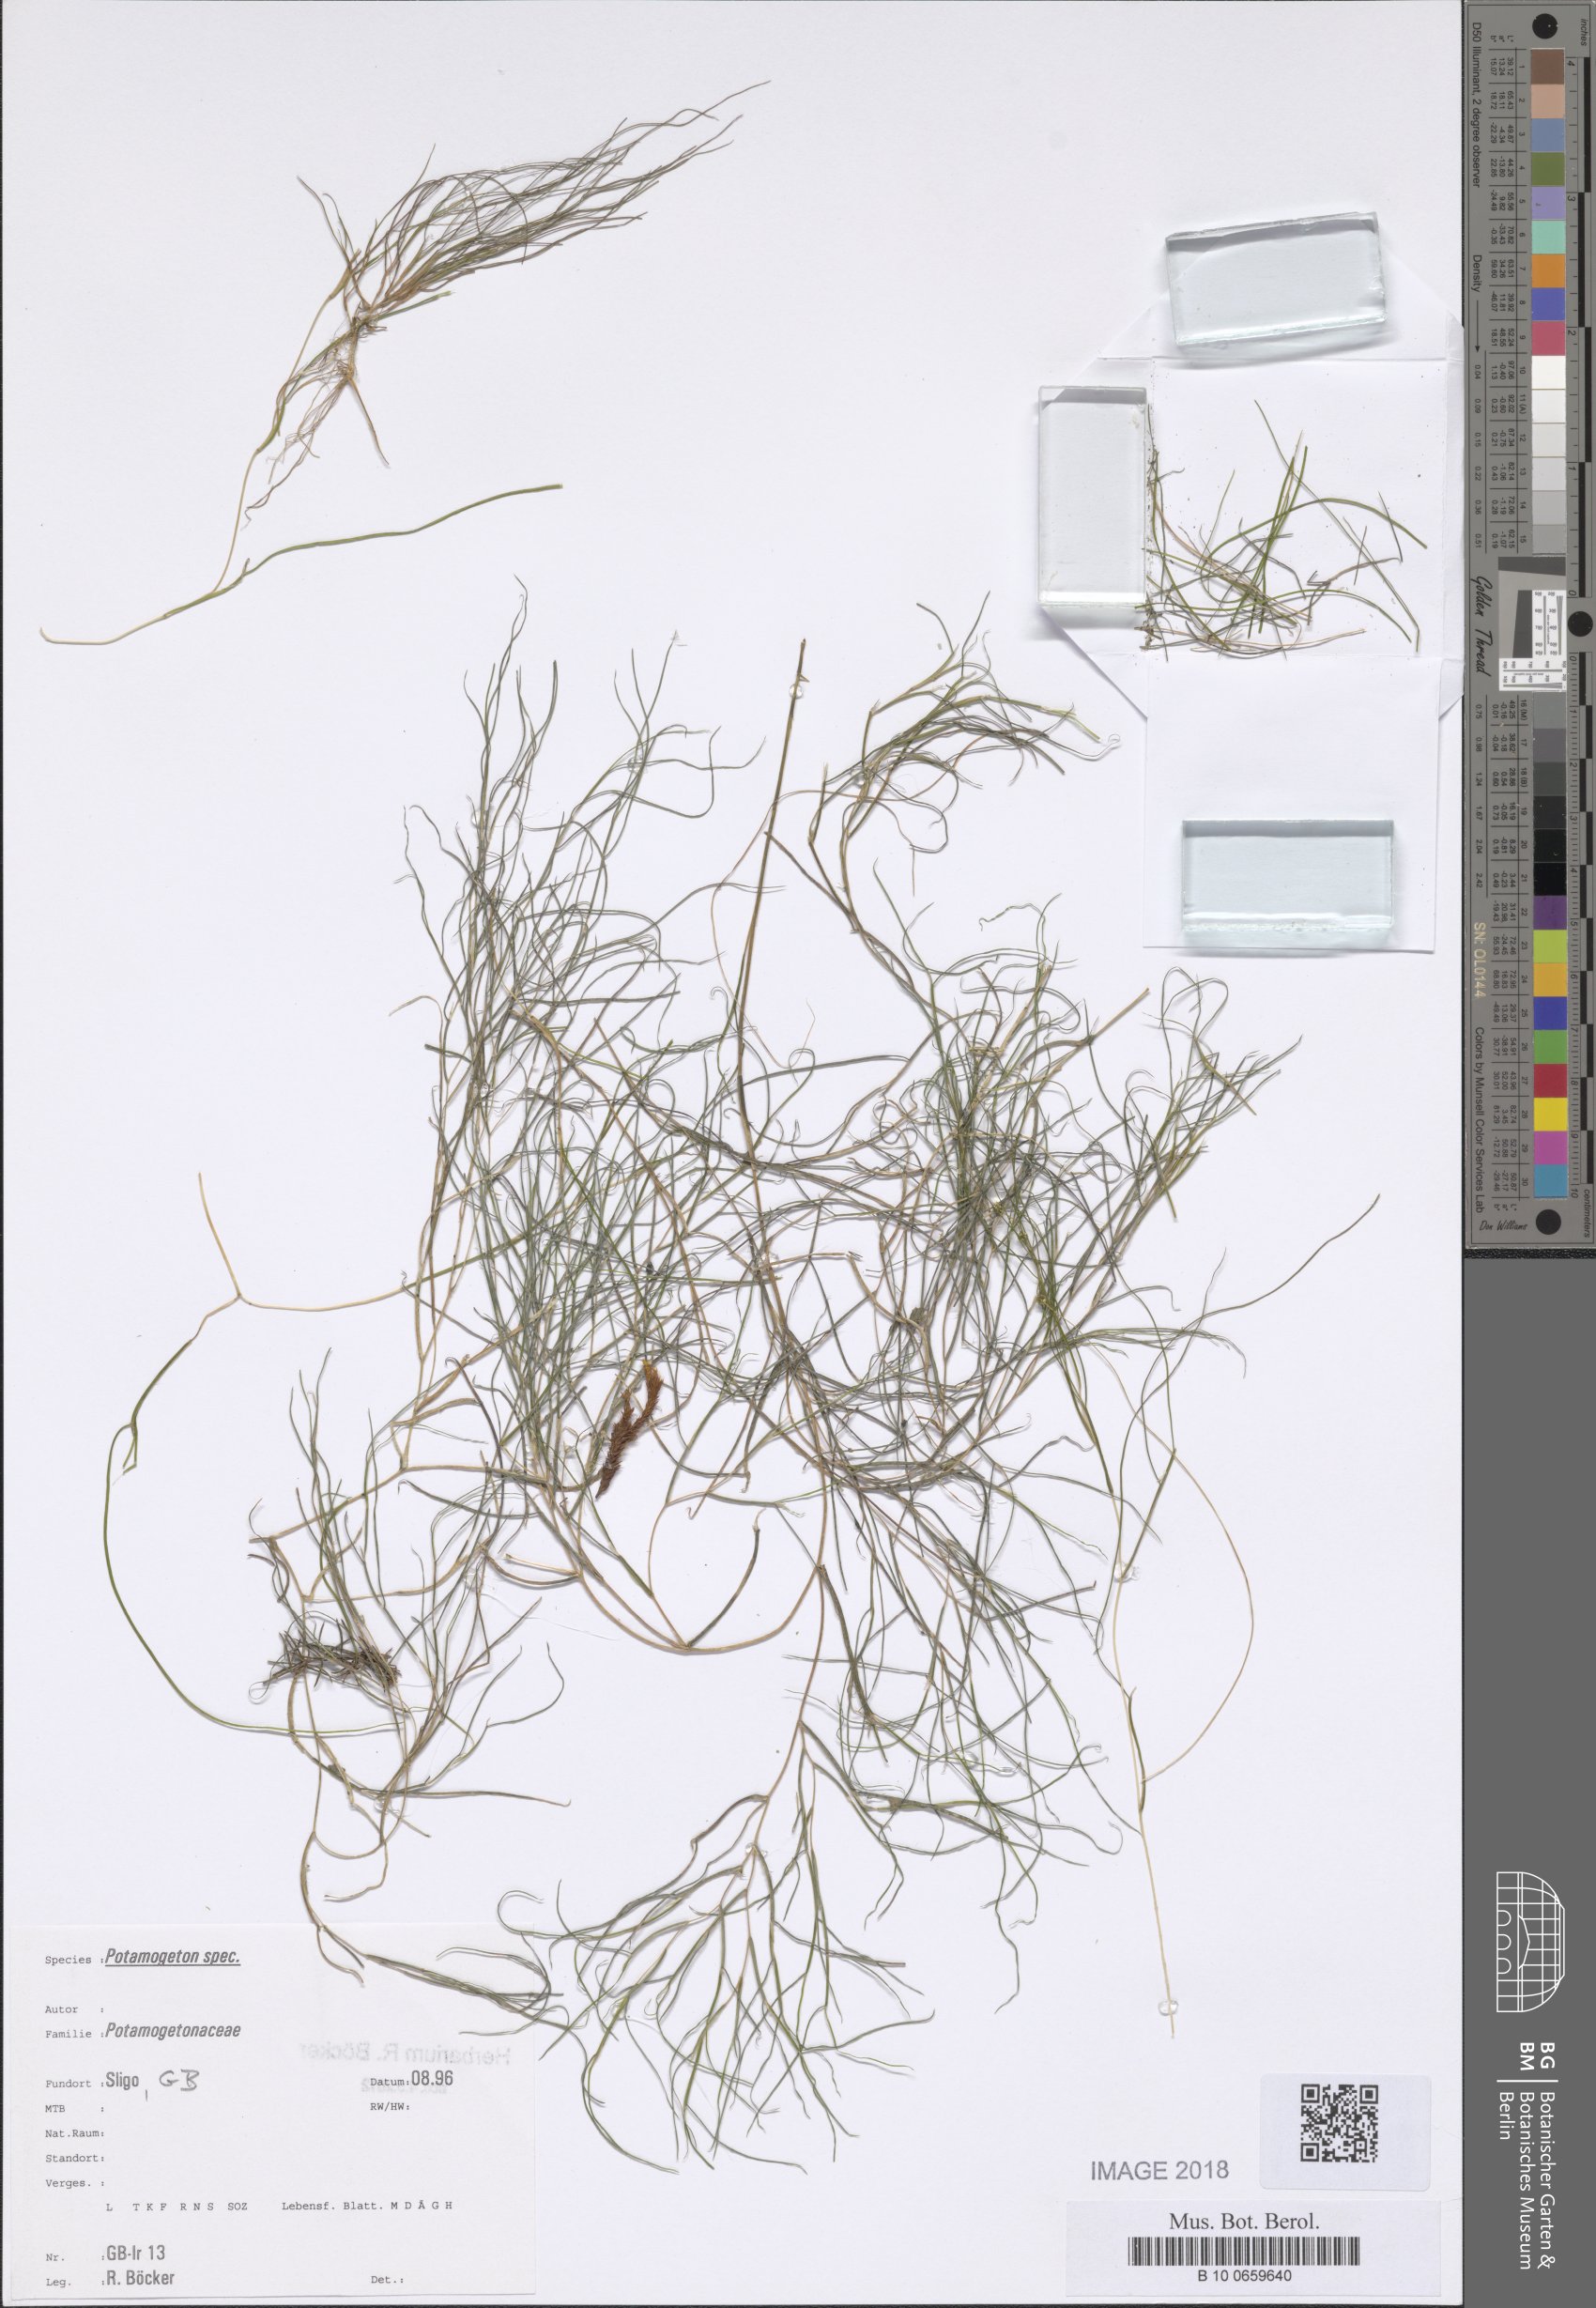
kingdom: Plantae
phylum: Tracheophyta
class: Liliopsida
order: Alismatales
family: Potamogetonaceae
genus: Stuckenia
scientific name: Stuckenia pectinata
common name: Sago pondweed
